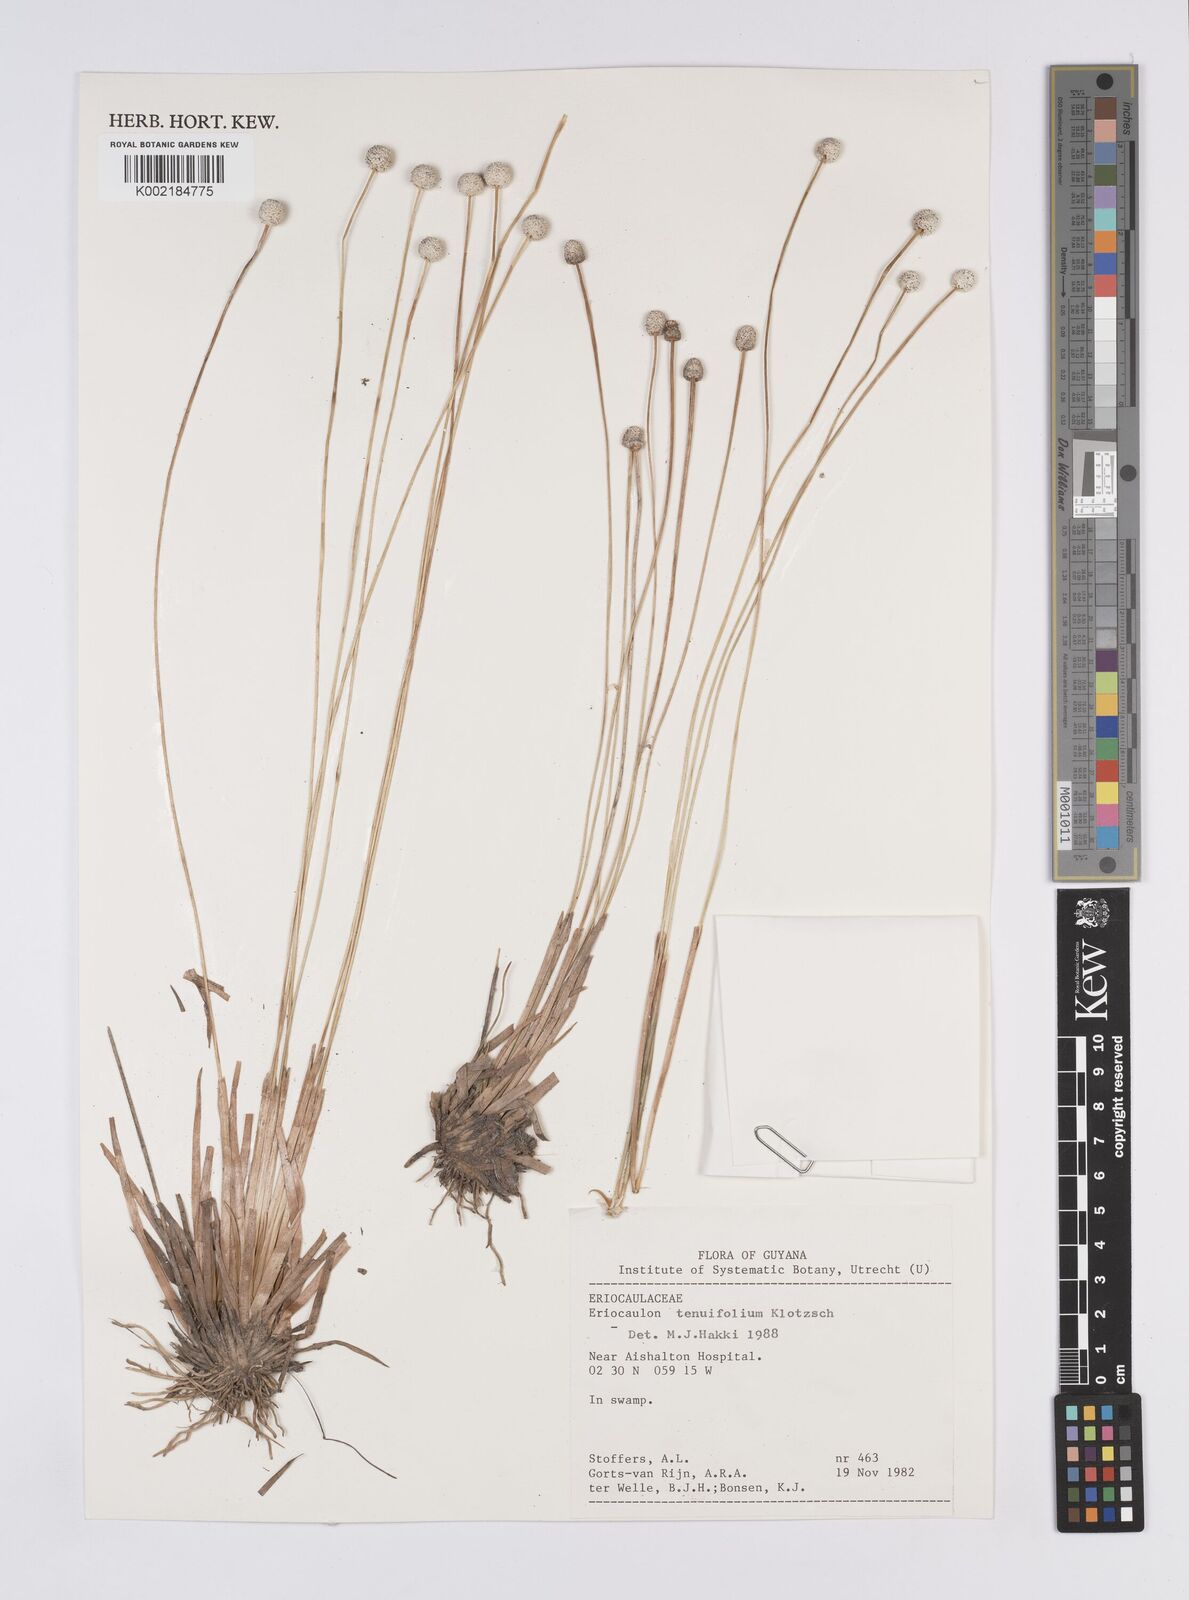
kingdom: Plantae
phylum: Tracheophyta
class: Liliopsida
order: Poales
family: Eriocaulaceae
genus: Eriocaulon
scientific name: Eriocaulon tenuifolium
